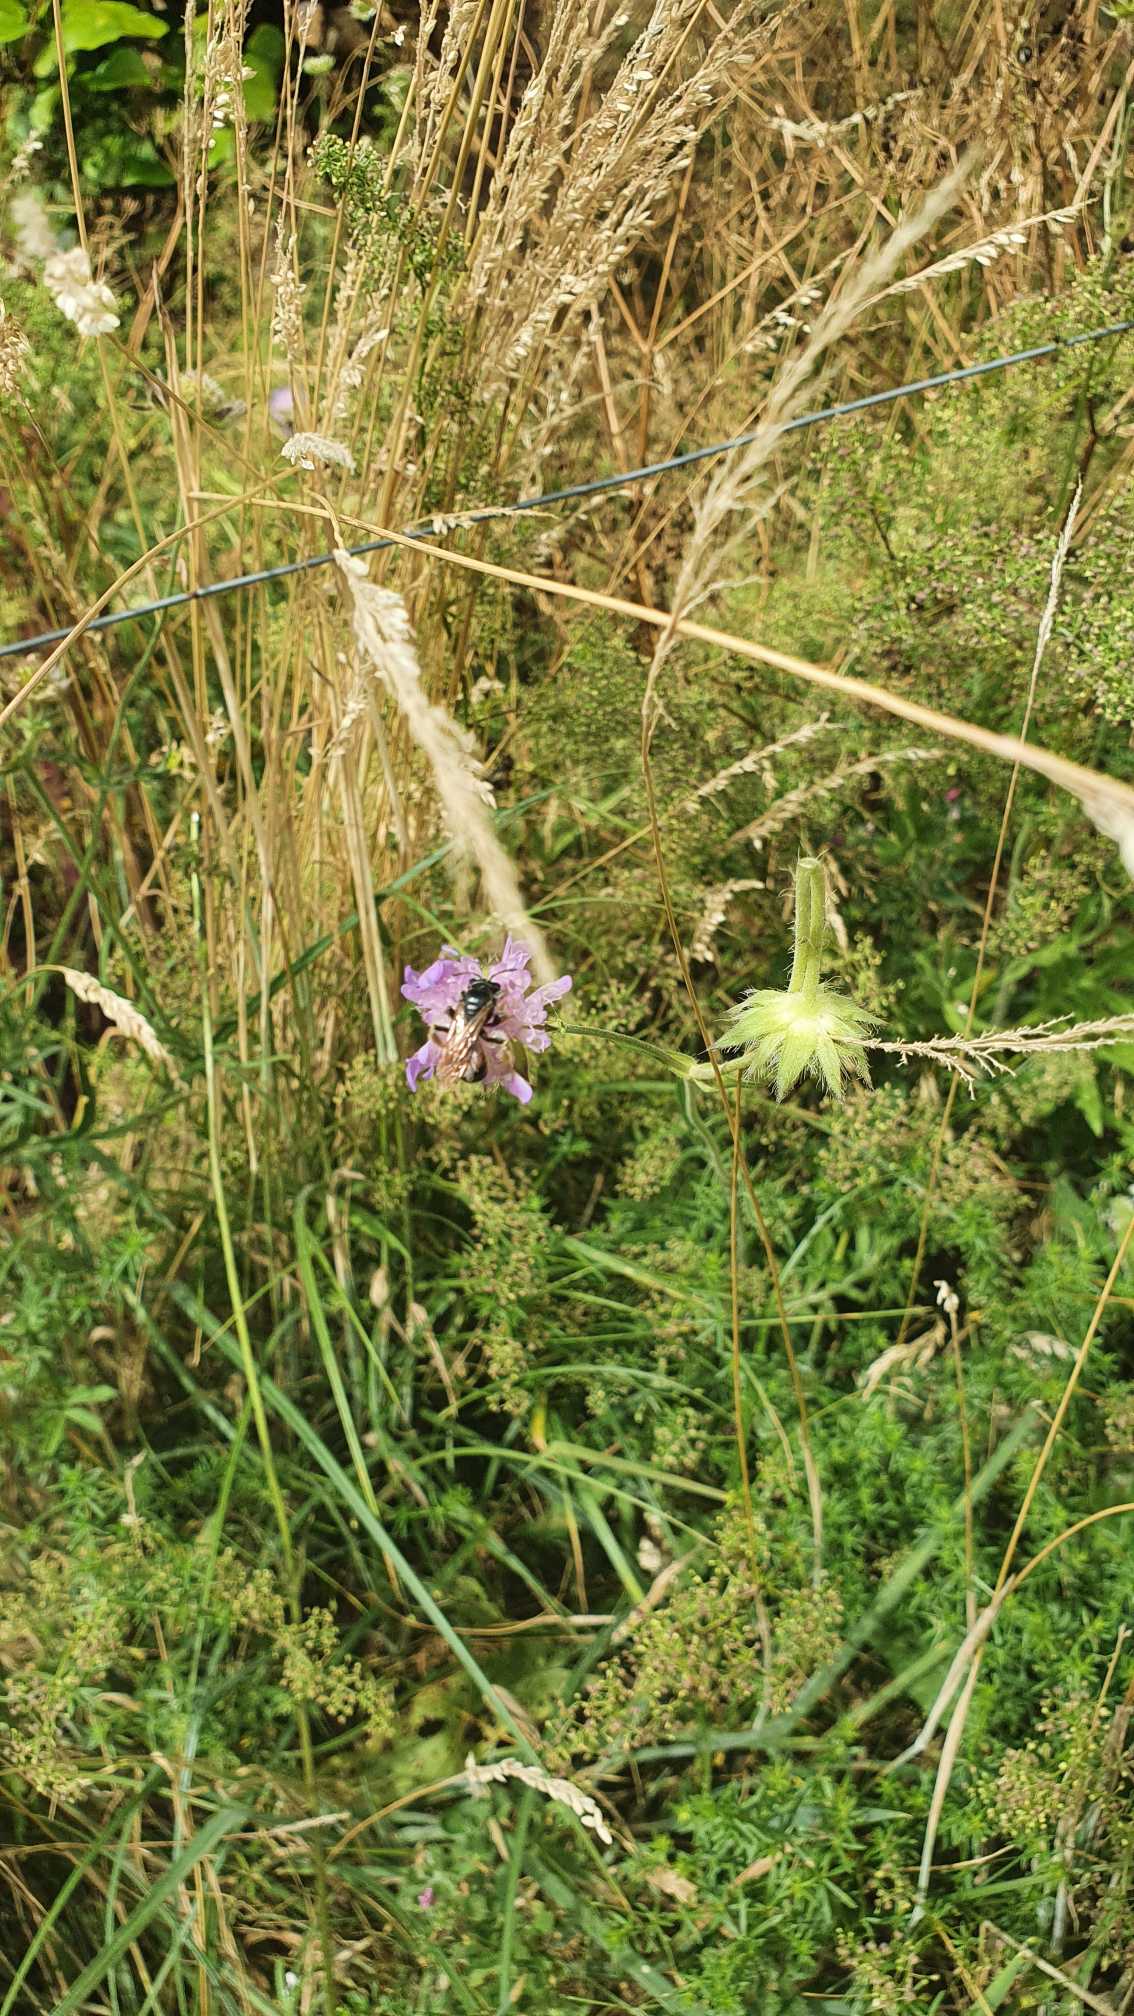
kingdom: Plantae
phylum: Tracheophyta
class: Magnoliopsida
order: Dipsacales
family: Caprifoliaceae
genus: Knautia
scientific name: Knautia arvensis
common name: Blåhat
